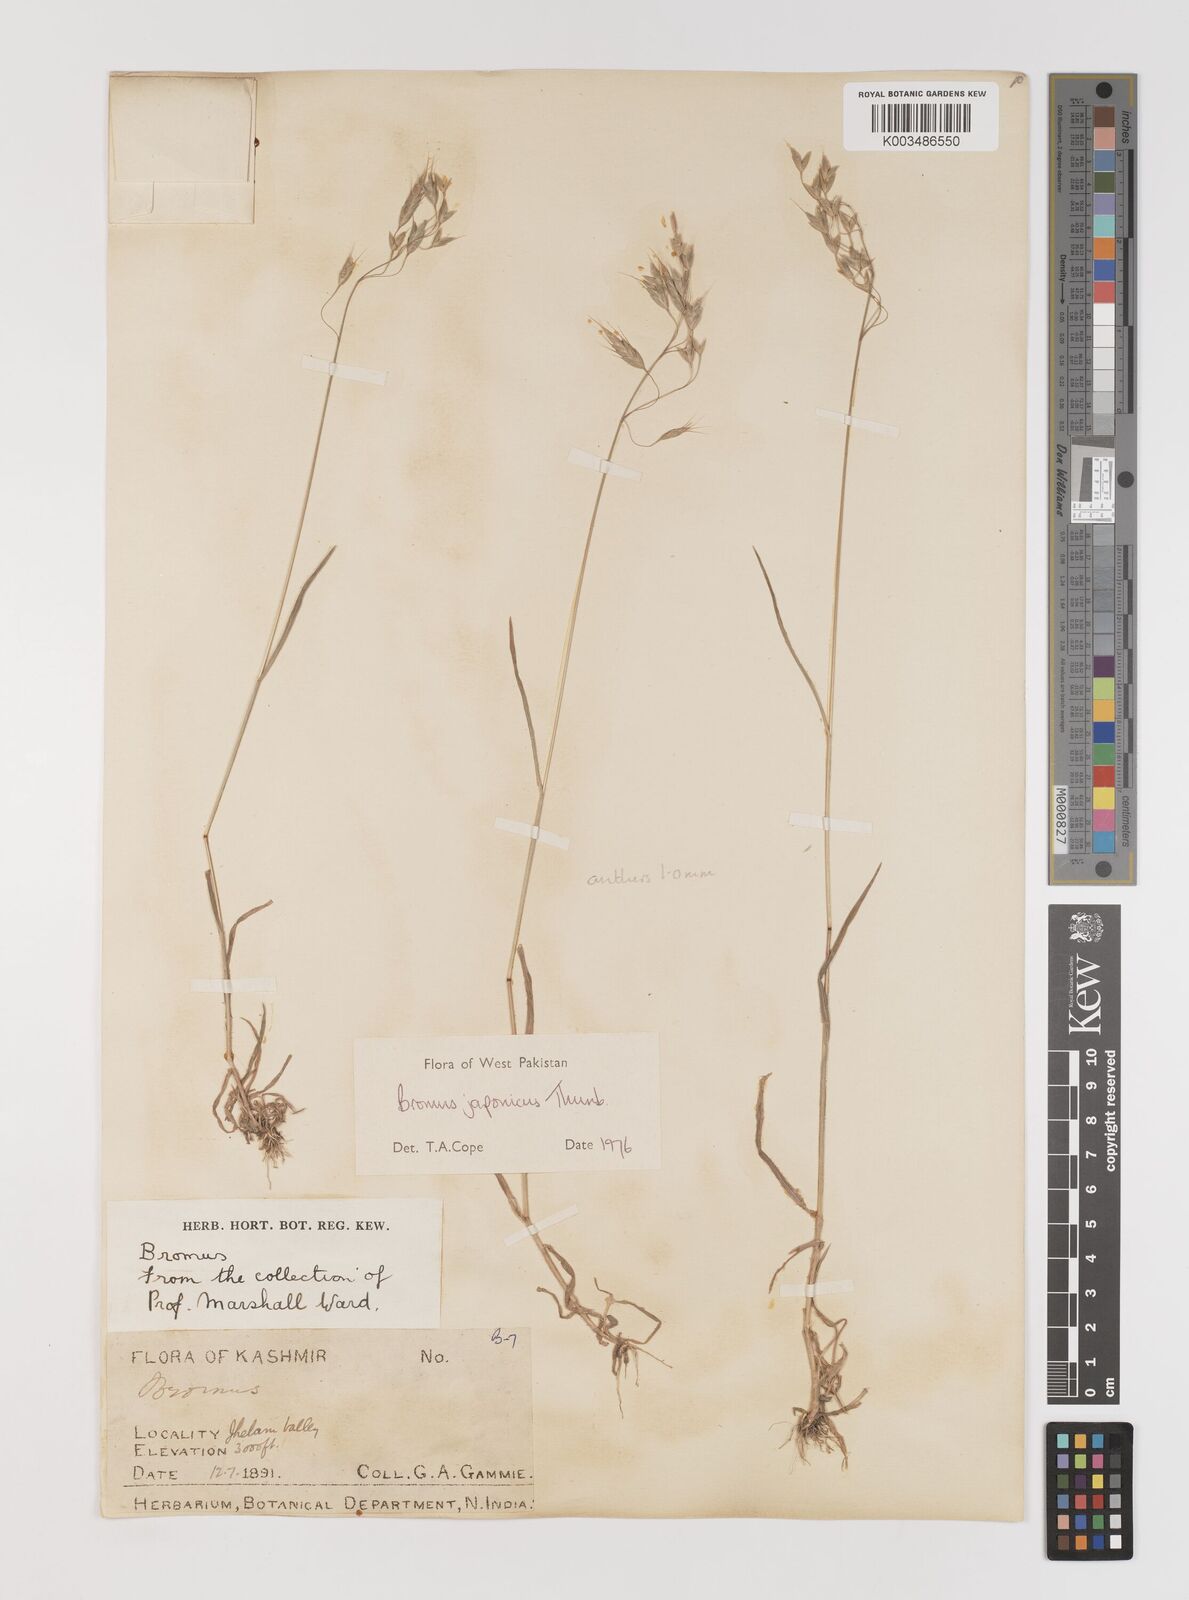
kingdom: Plantae
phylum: Tracheophyta
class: Liliopsida
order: Poales
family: Poaceae
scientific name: Poaceae
